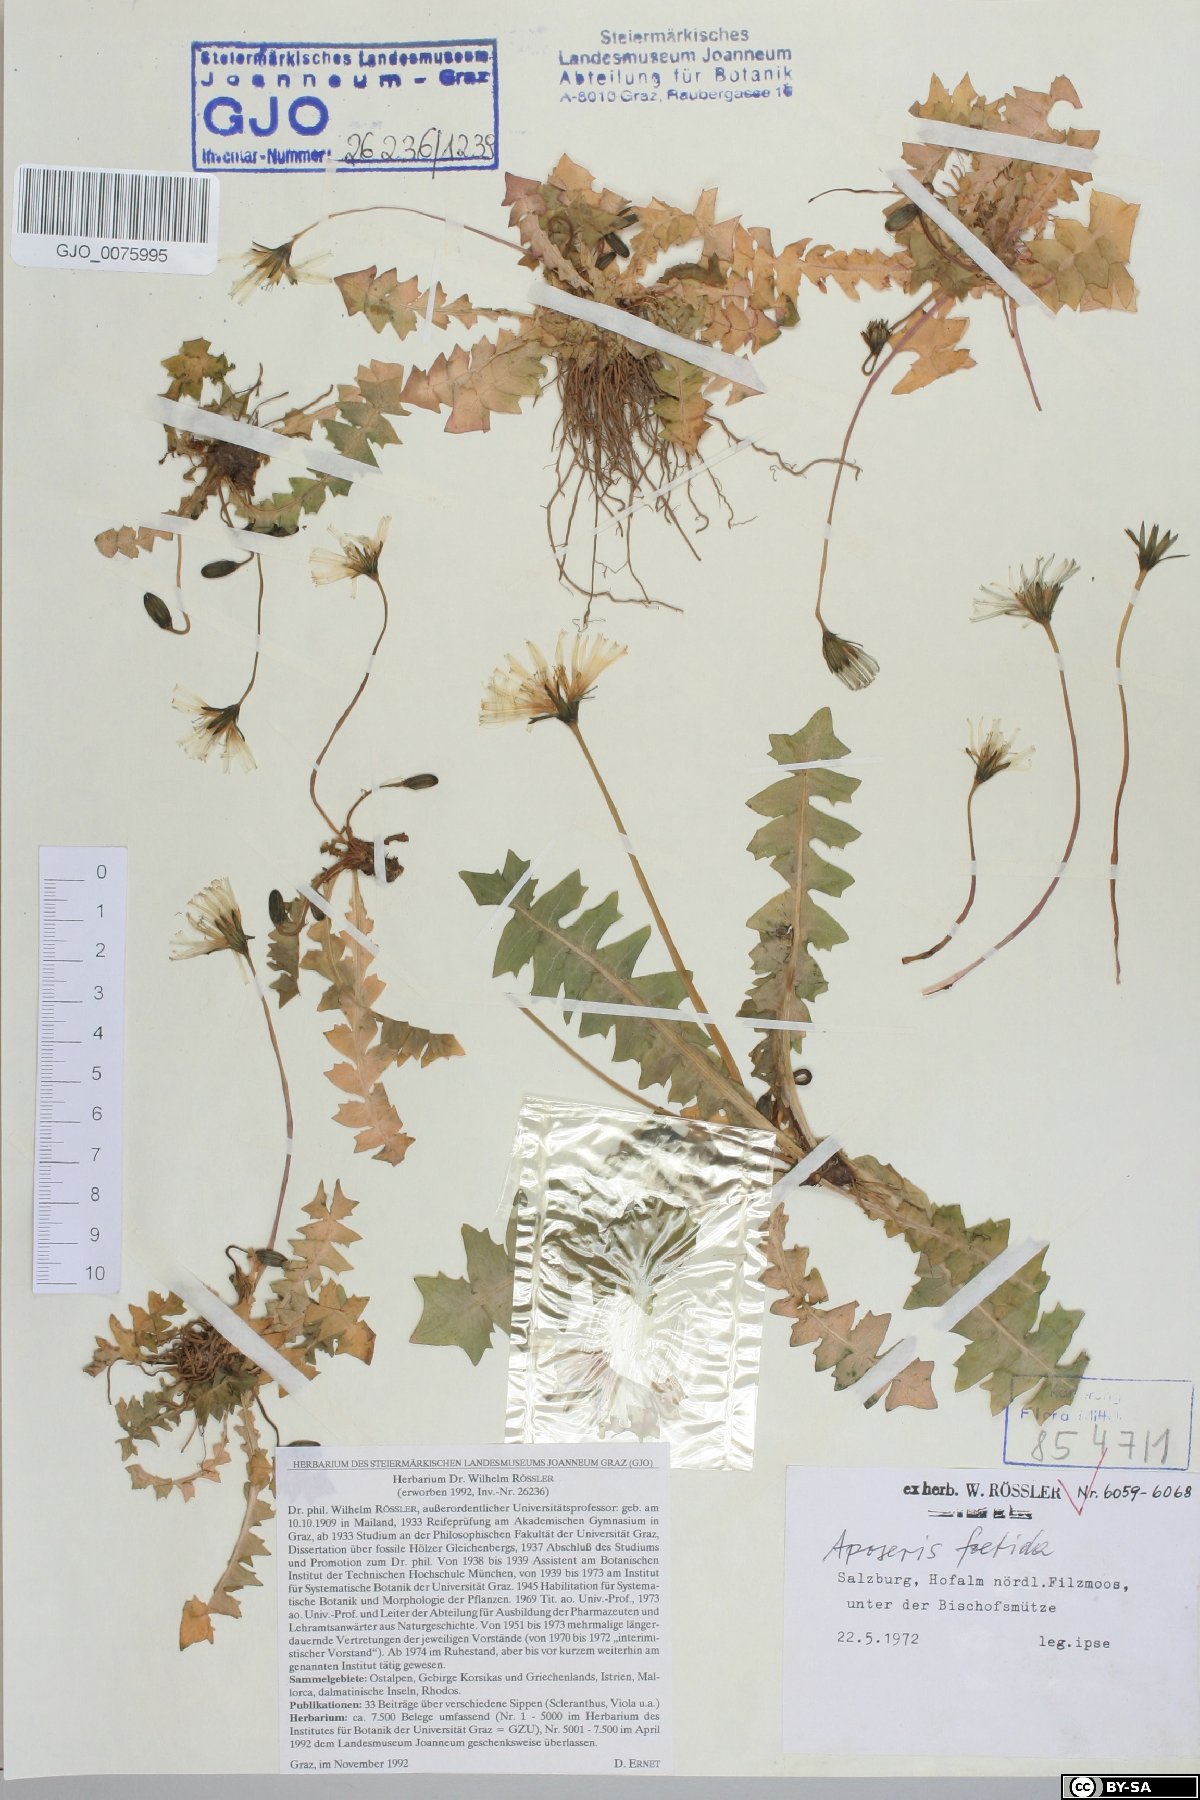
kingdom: Plantae
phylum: Tracheophyta
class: Magnoliopsida
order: Asterales
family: Asteraceae
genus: Aposeris
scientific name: Aposeris foetida
